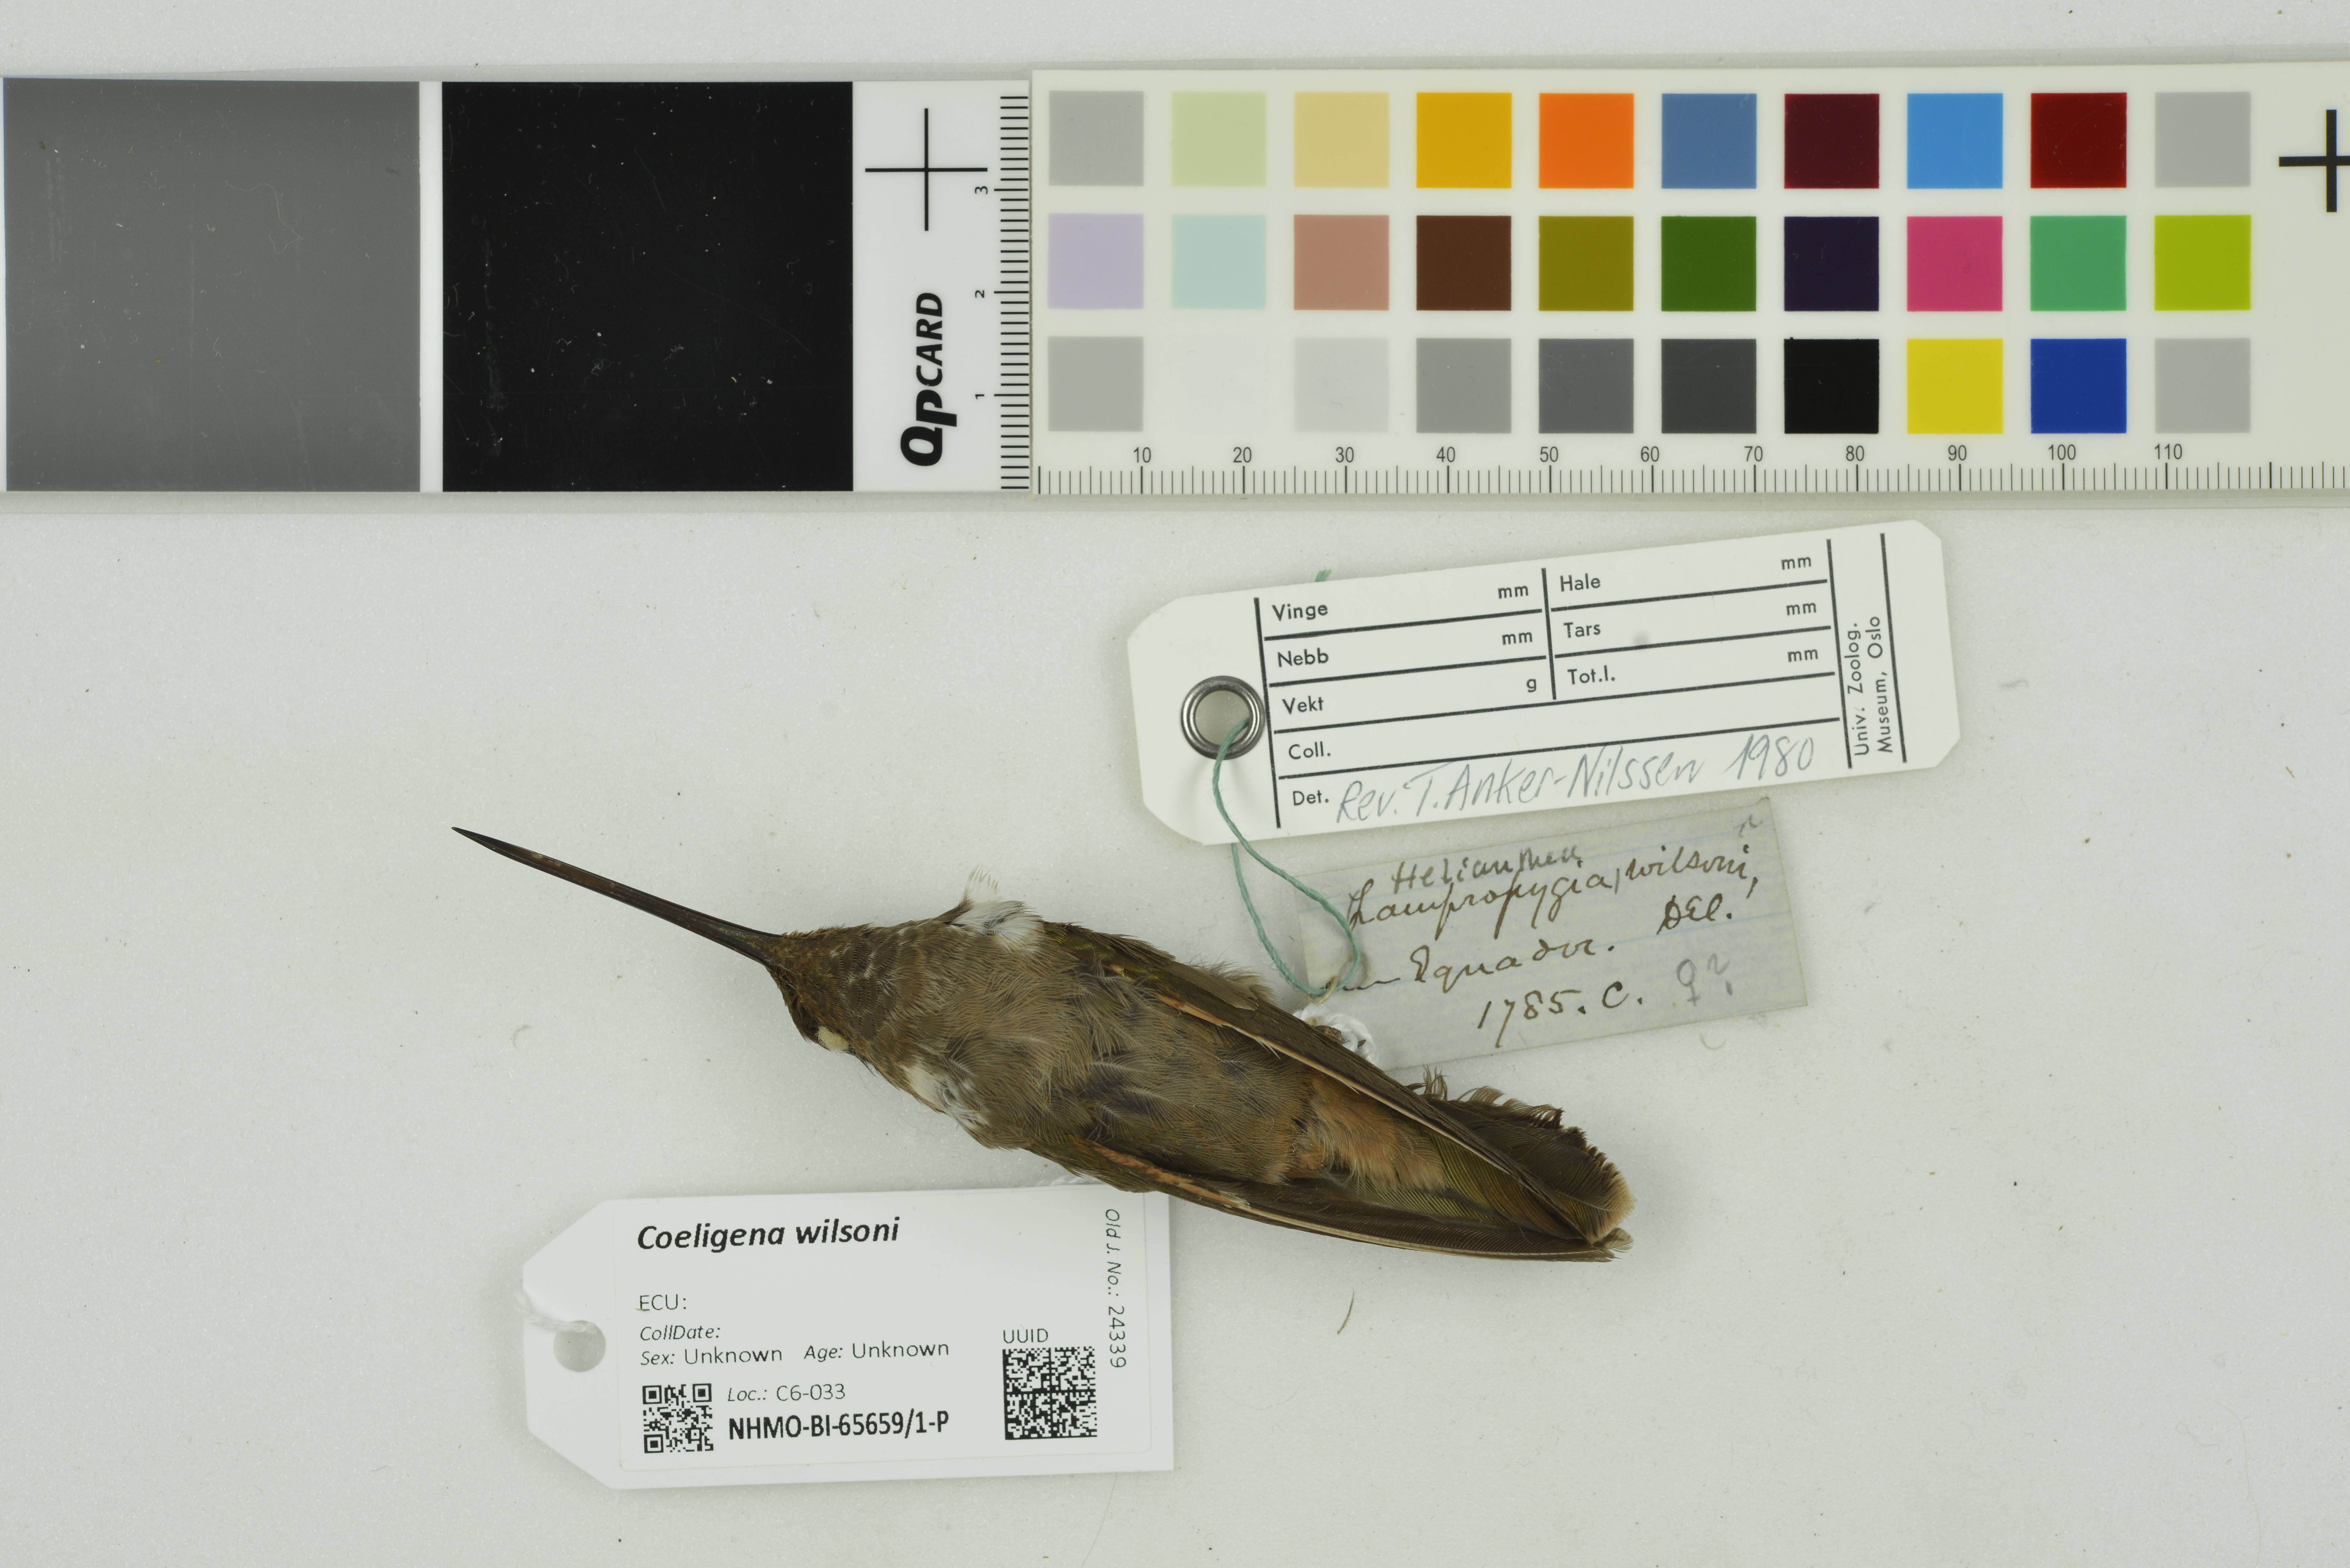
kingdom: Animalia
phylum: Chordata
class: Aves
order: Apodiformes
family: Trochilidae
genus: Coeligena
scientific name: Coeligena wilsoni
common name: Brown inca
